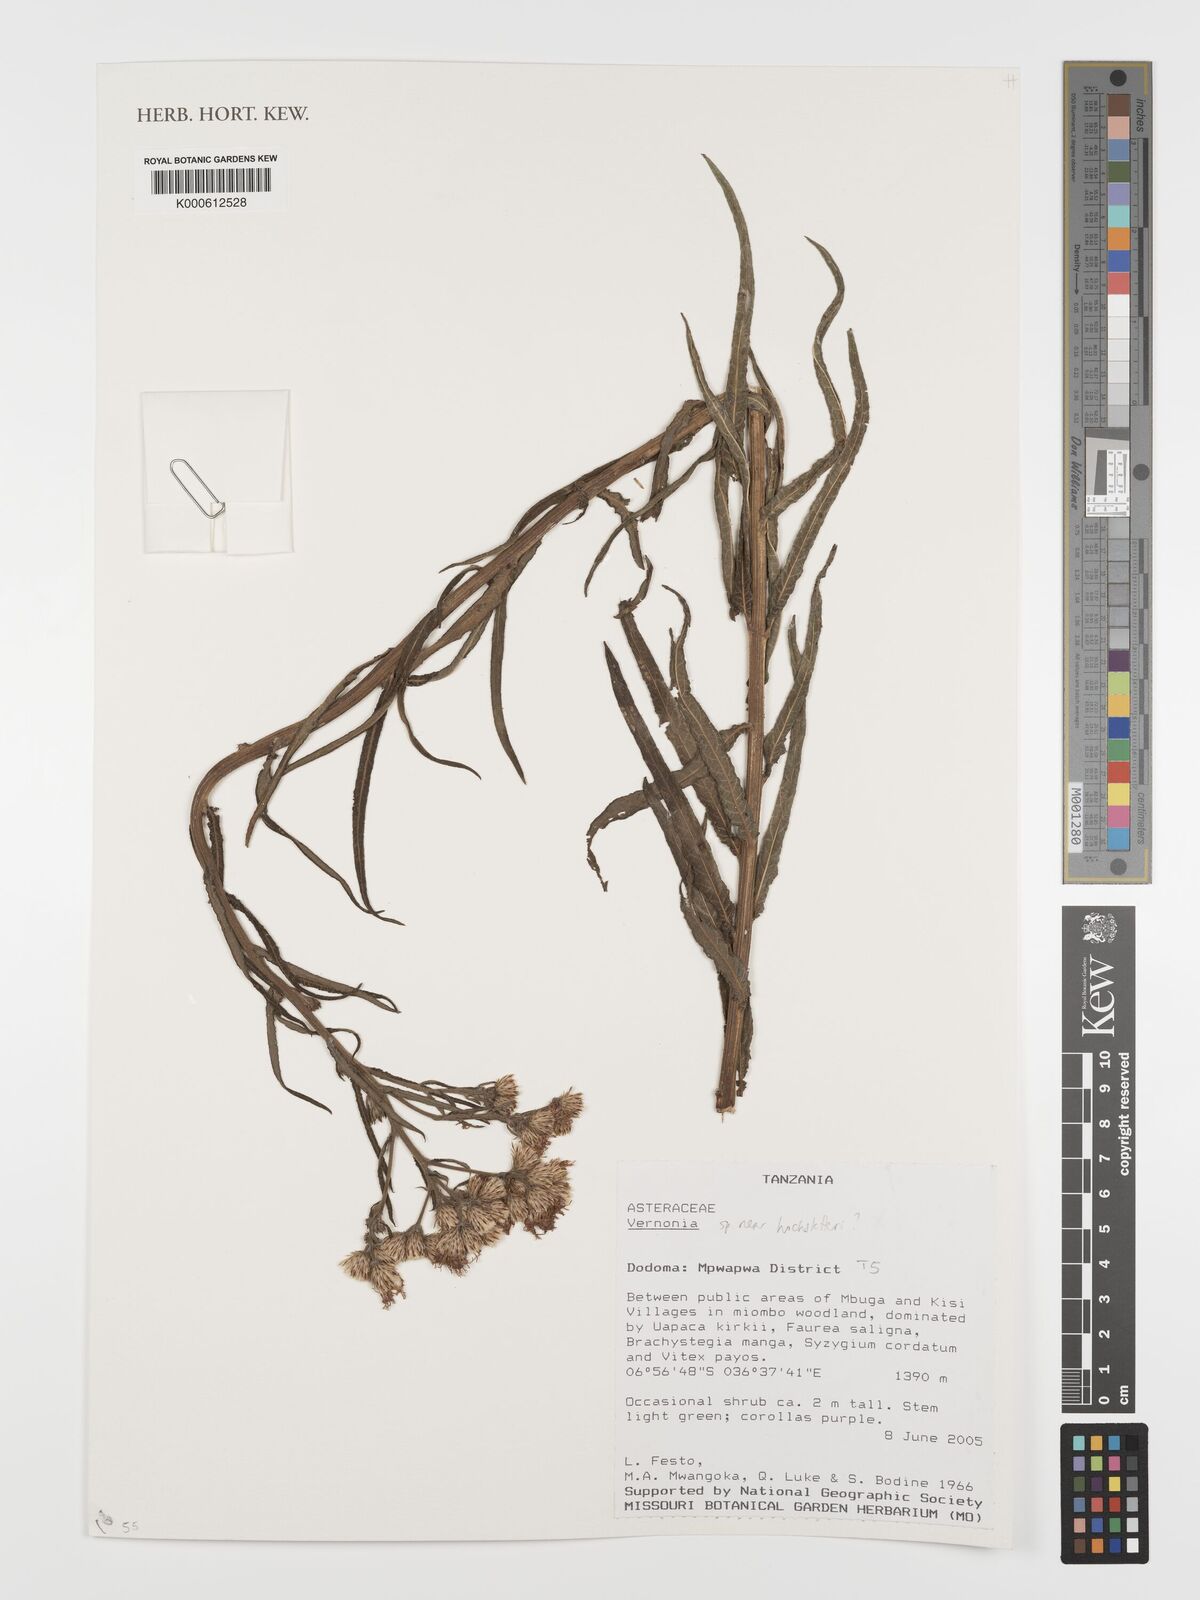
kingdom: Plantae
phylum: Tracheophyta
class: Magnoliopsida
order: Asterales
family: Asteraceae
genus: Vernonia
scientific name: Vernonia
